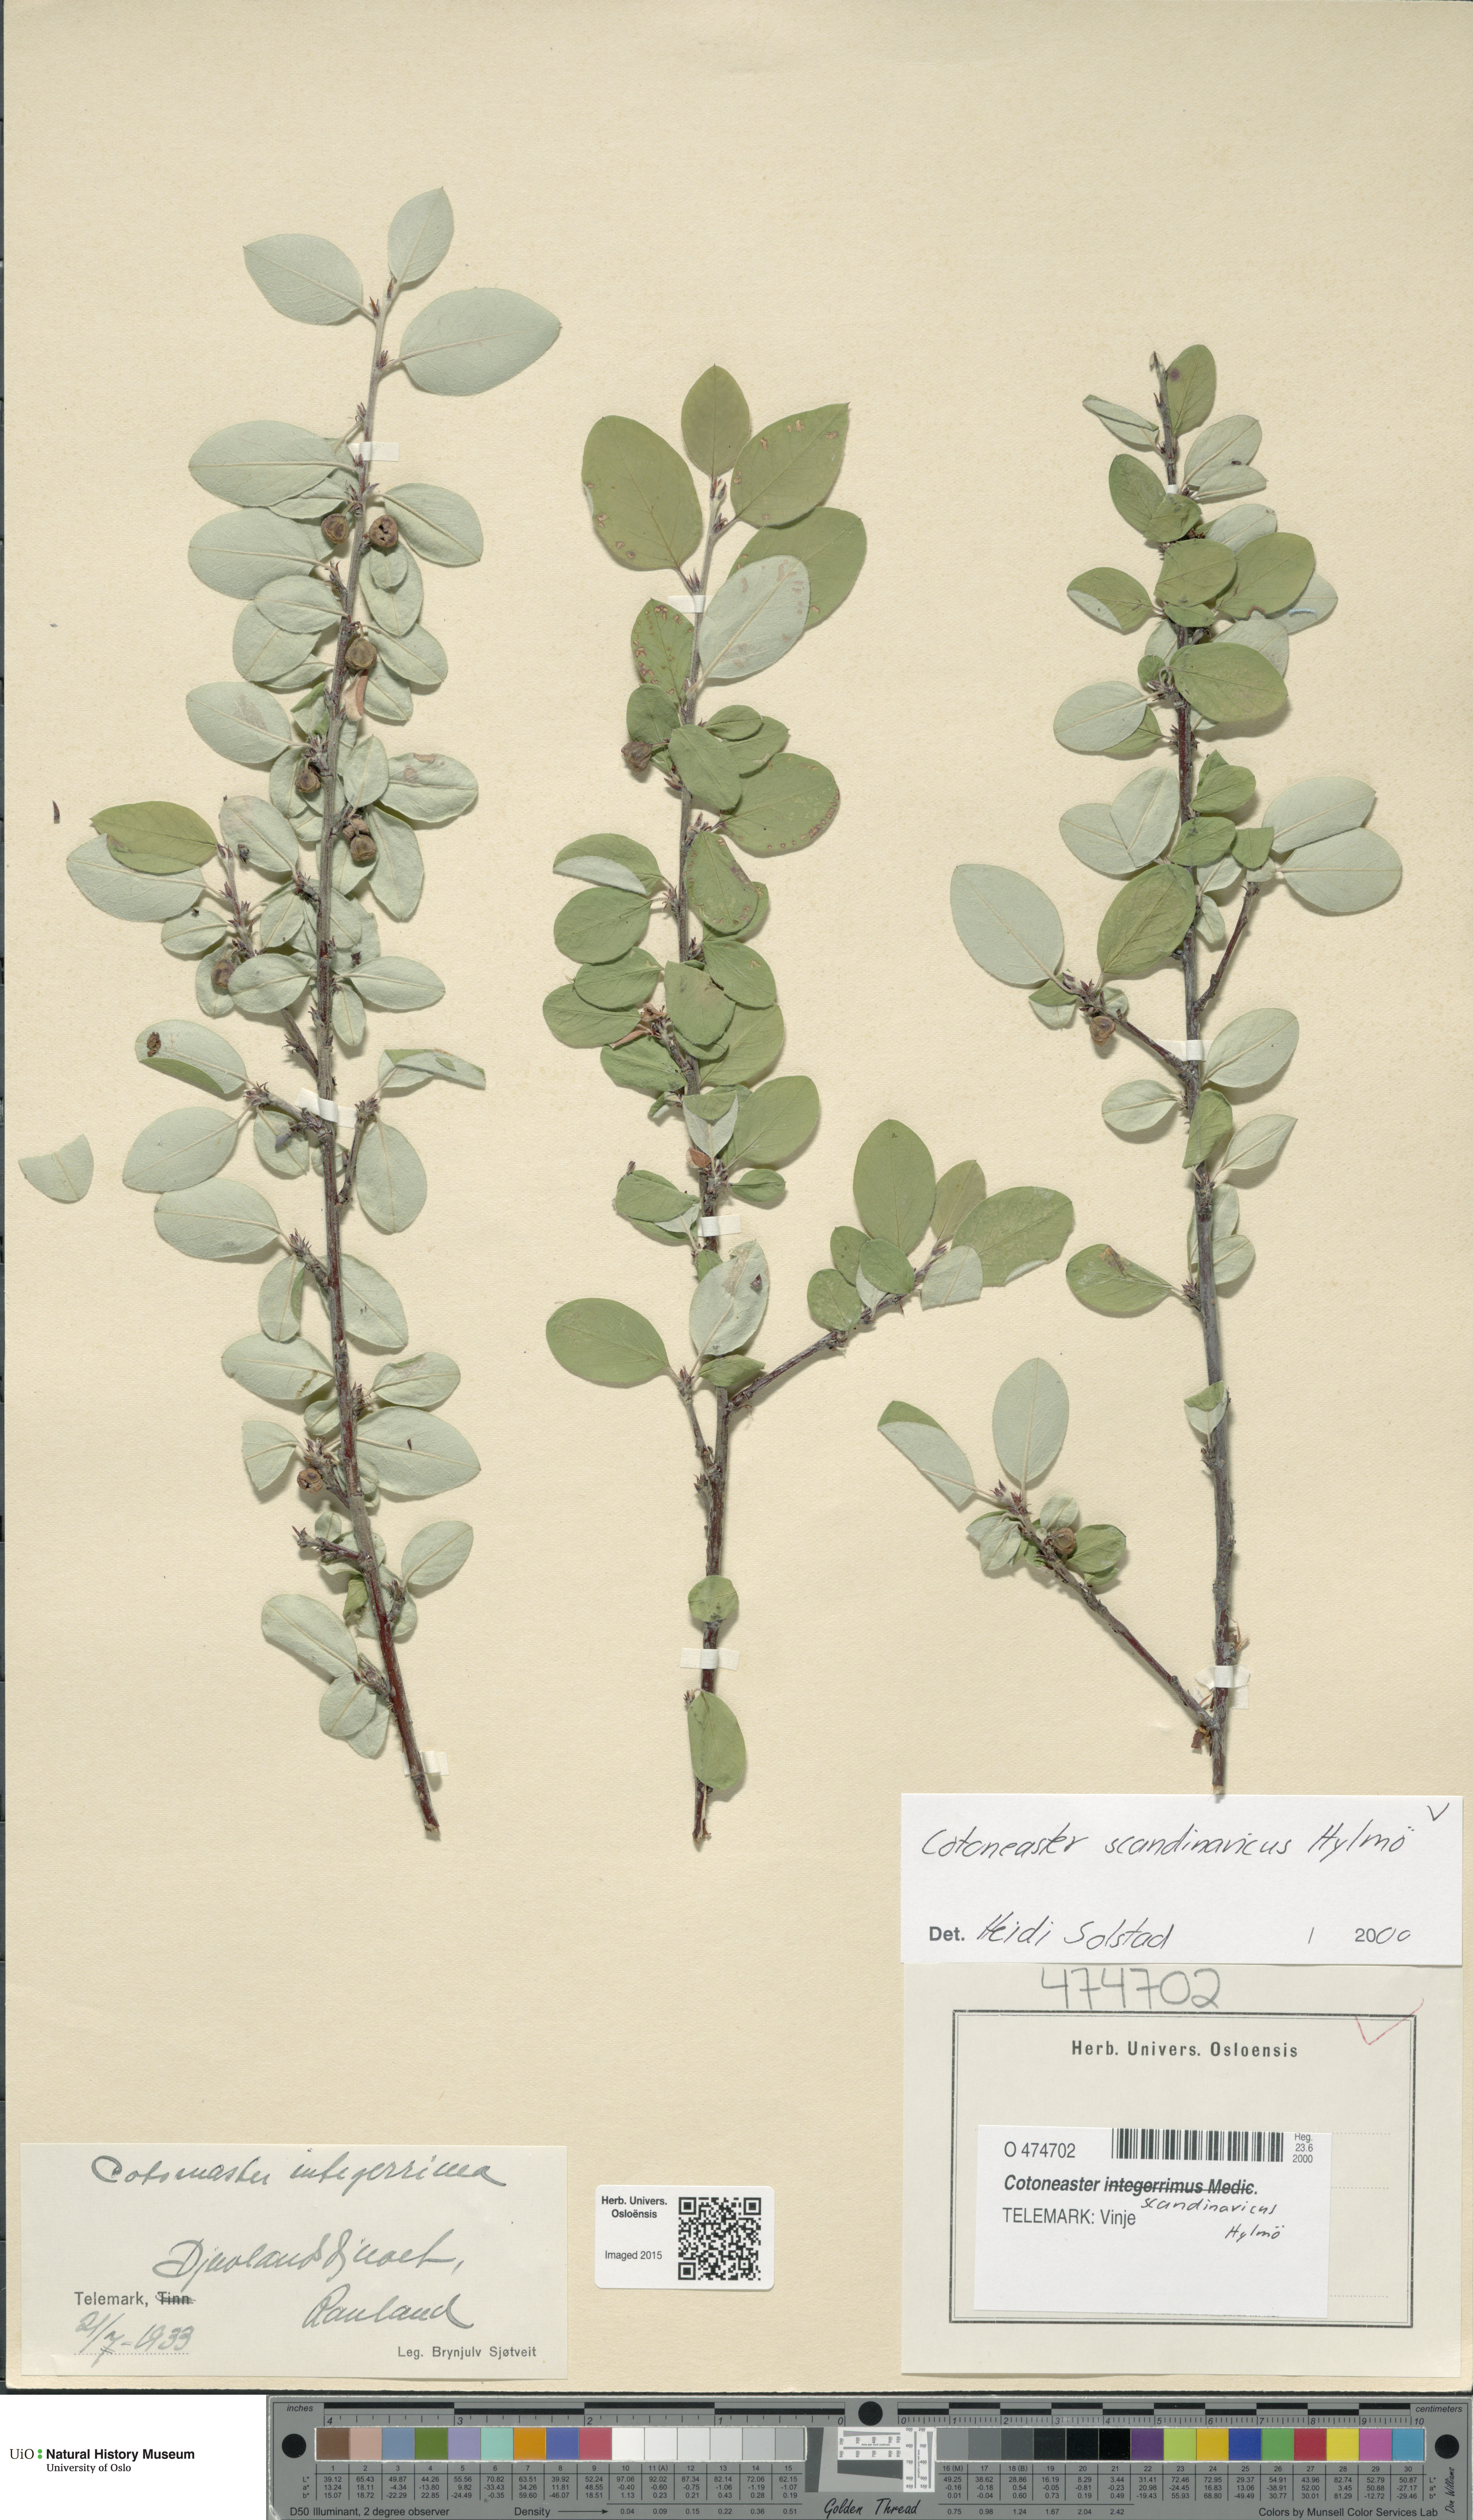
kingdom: Plantae
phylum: Tracheophyta
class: Magnoliopsida
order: Rosales
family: Rosaceae
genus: Cotoneaster
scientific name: Cotoneaster integerrimus
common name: Wild cotoneaster
